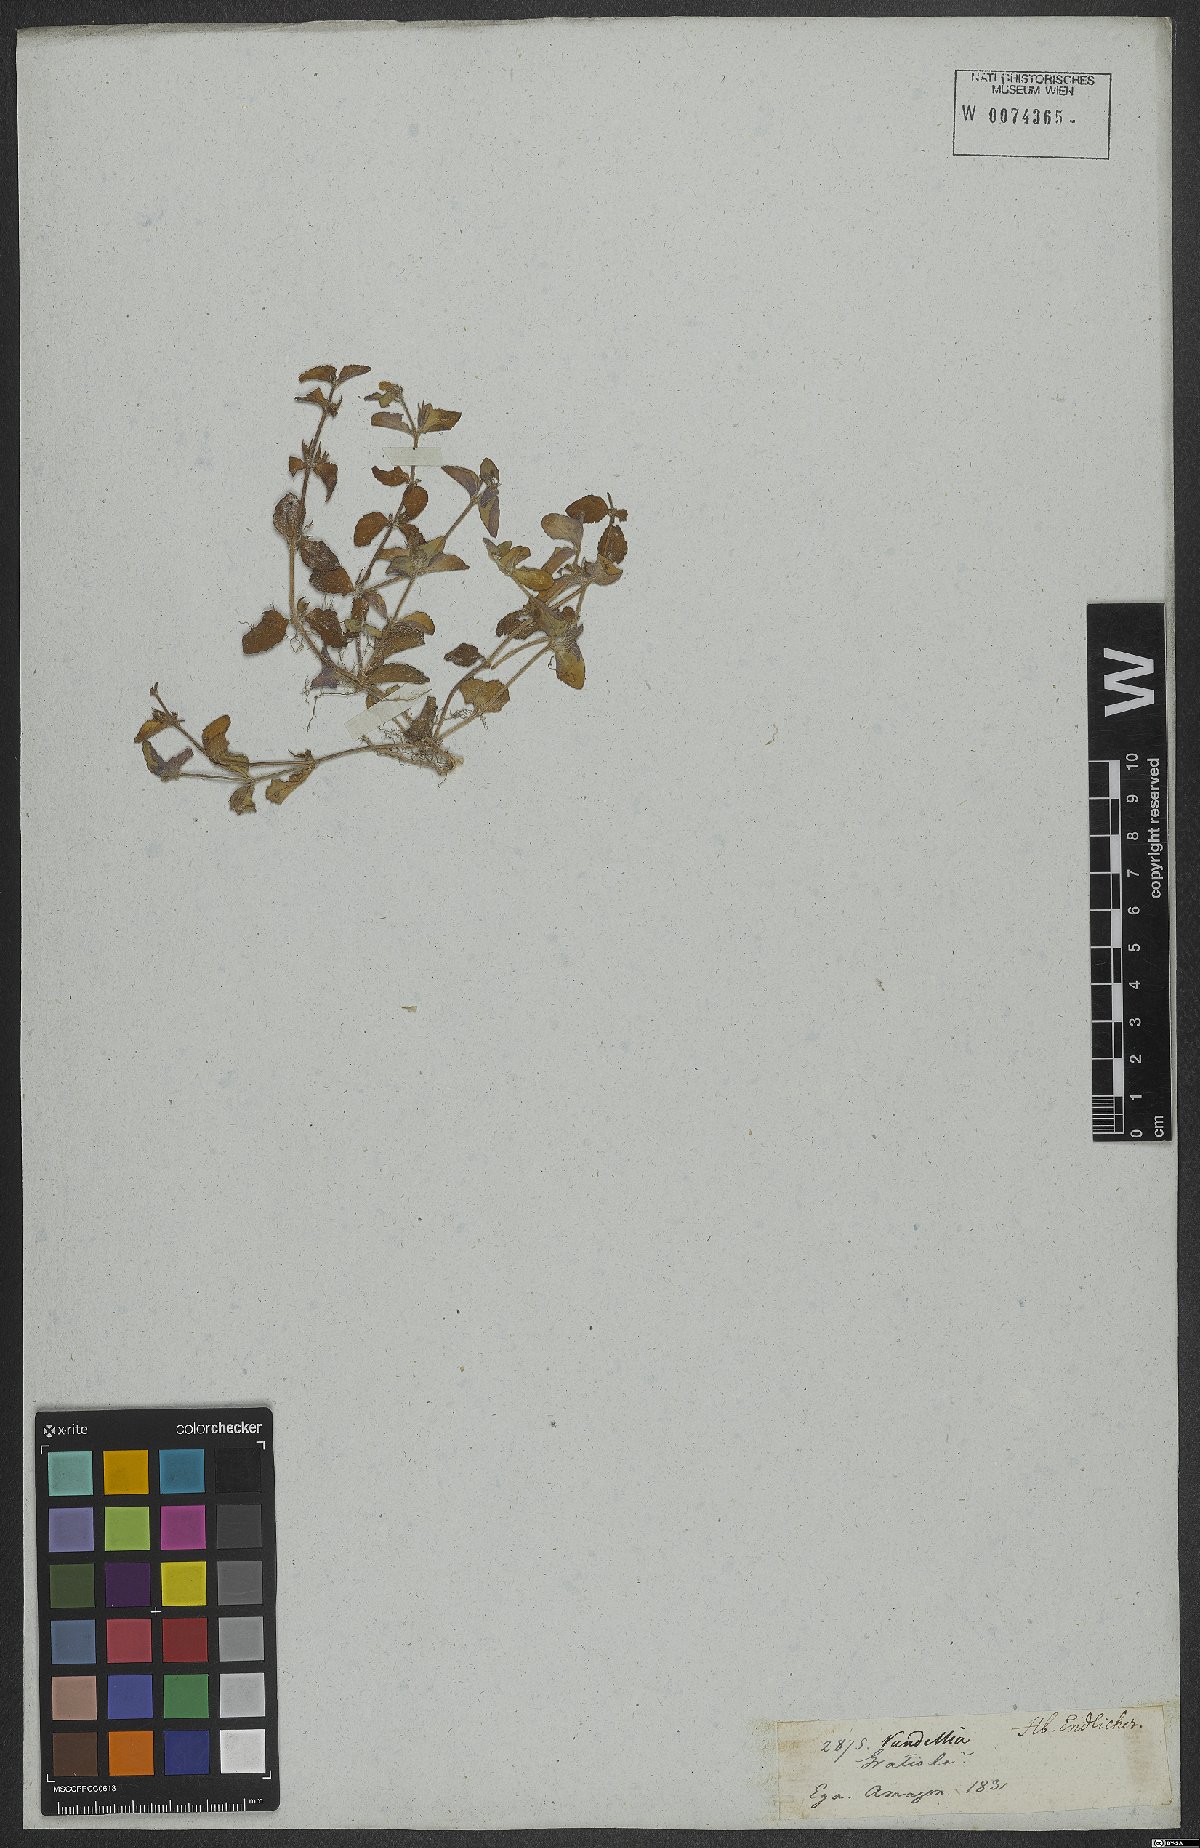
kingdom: Plantae
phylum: Tracheophyta
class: Magnoliopsida
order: Lamiales
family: Linderniaceae
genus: Vandellia
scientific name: Vandellia diffusa
